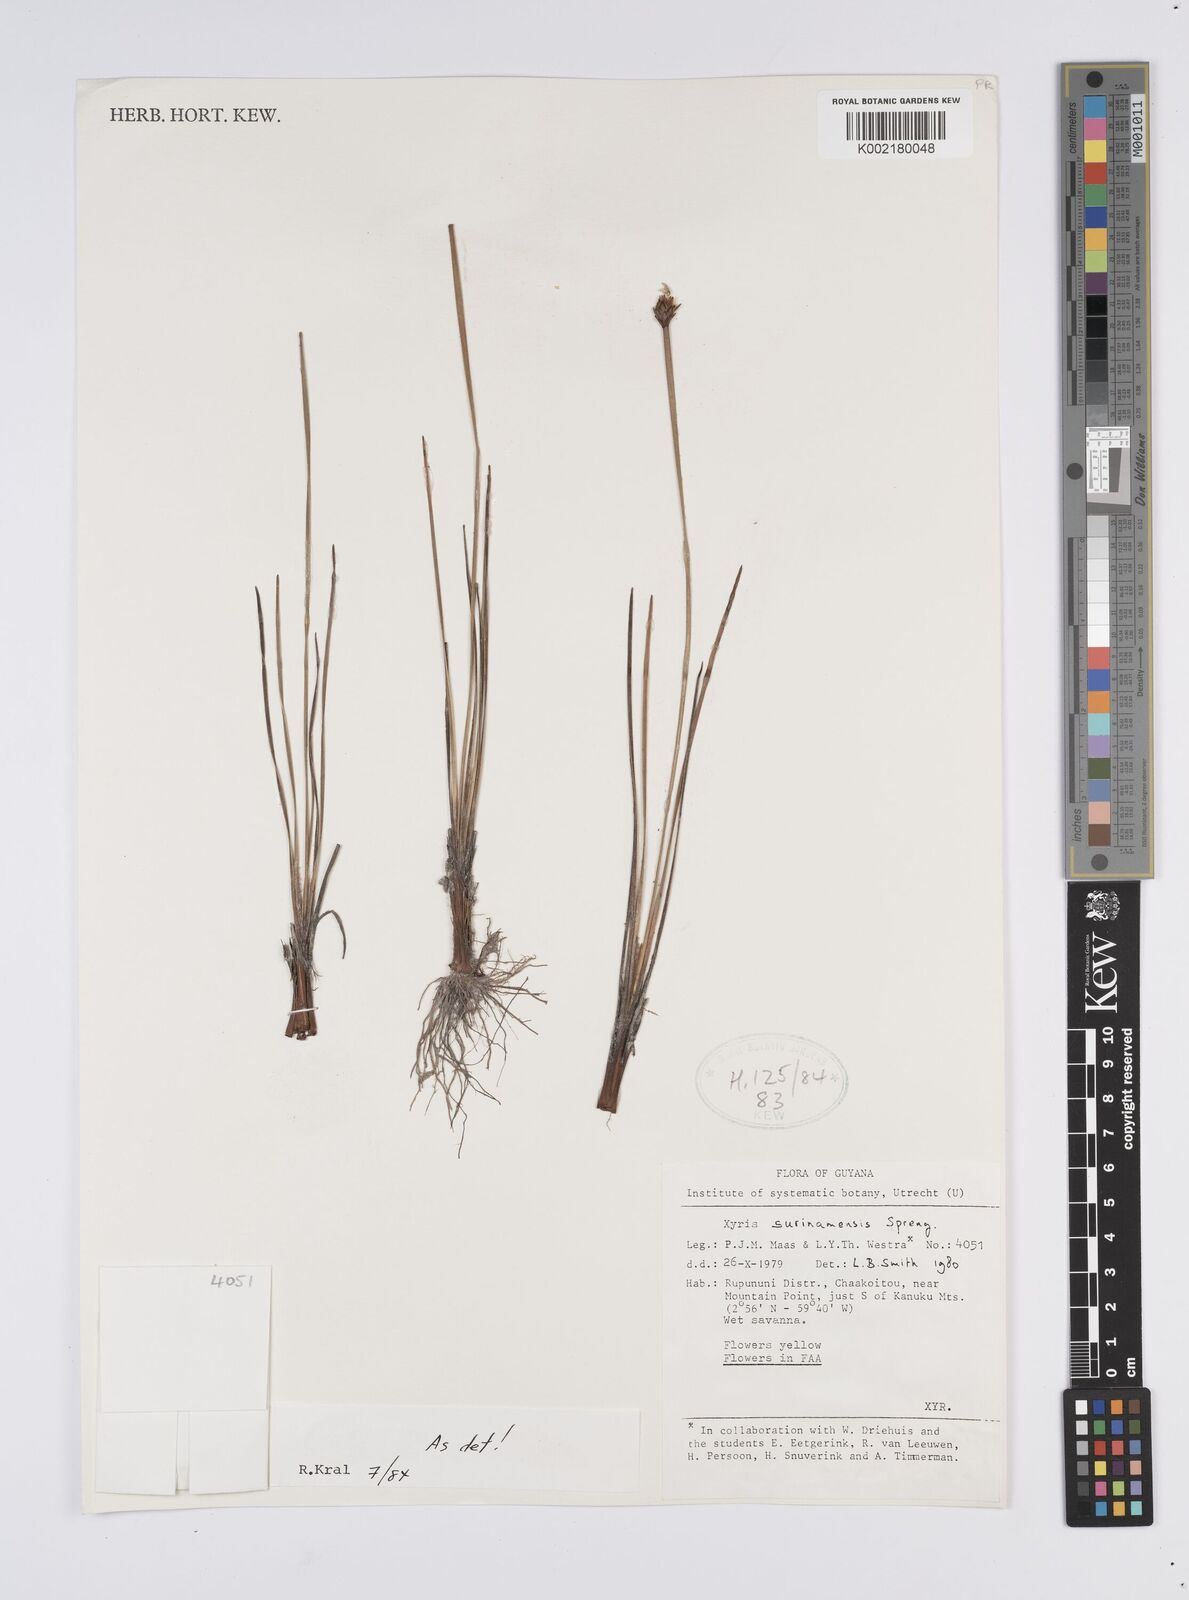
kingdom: Plantae
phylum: Tracheophyta
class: Liliopsida
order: Poales
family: Xyridaceae
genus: Xyris
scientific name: Xyris surinamensis
